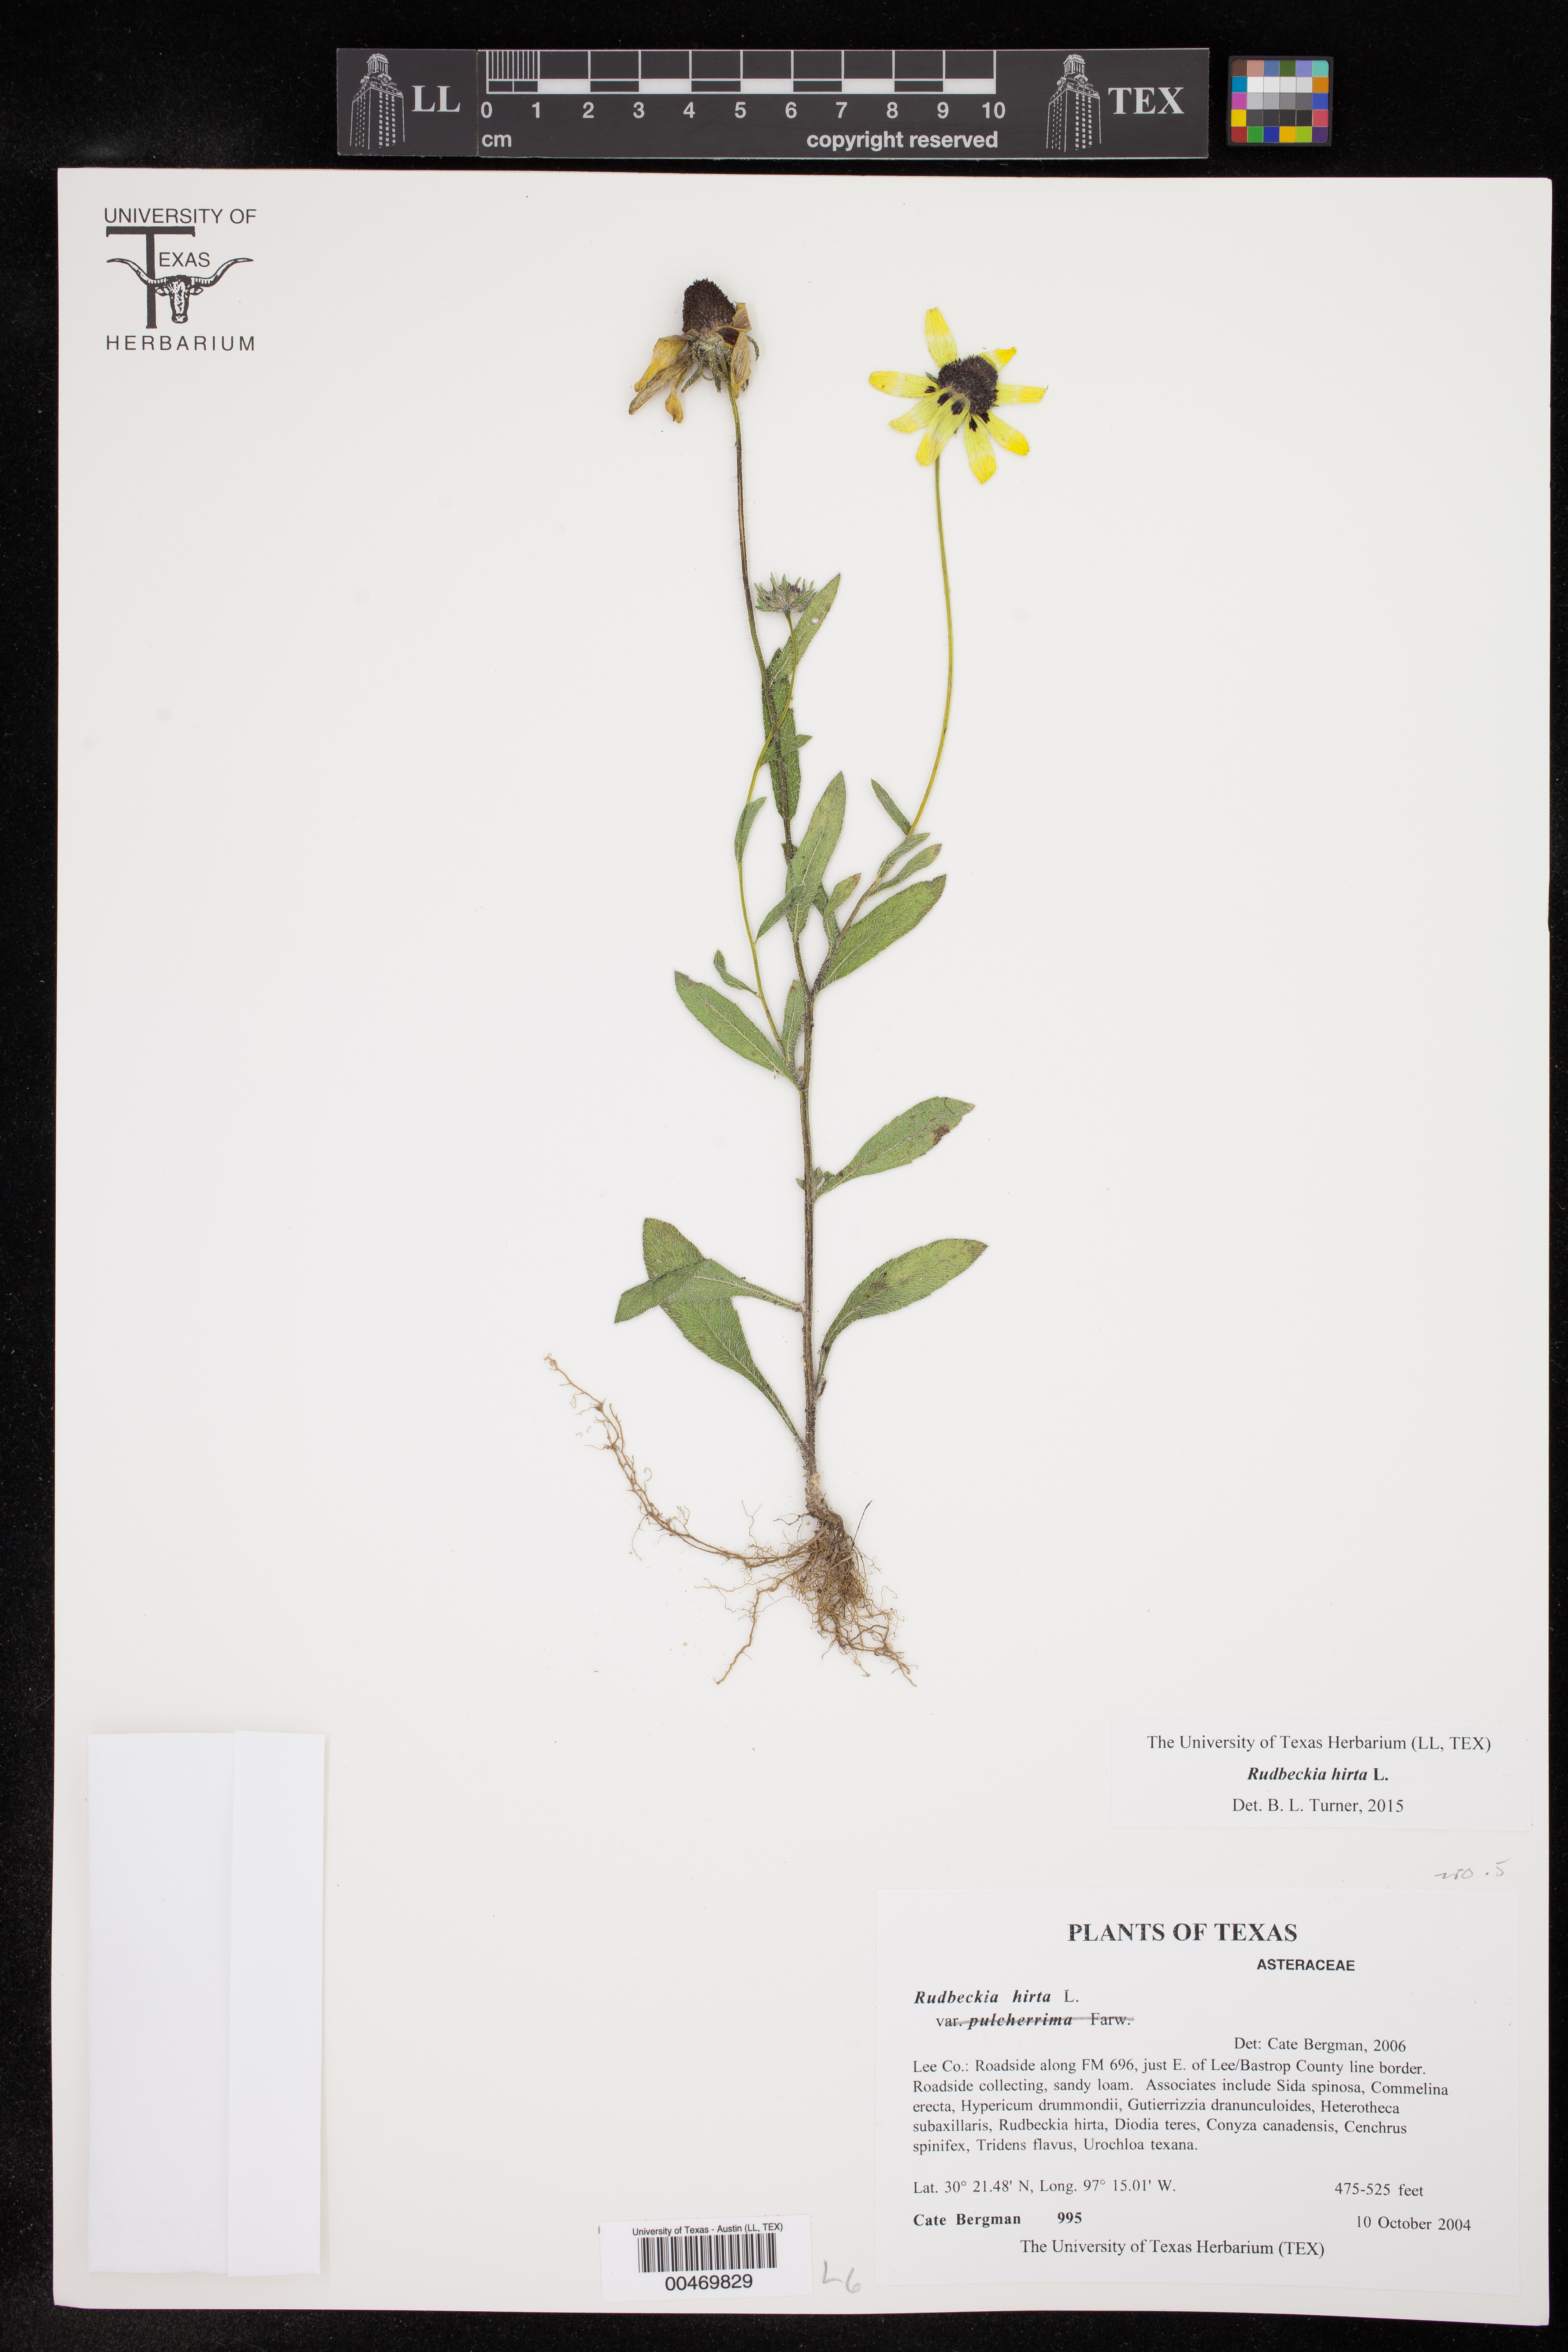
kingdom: Plantae
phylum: Tracheophyta
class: Magnoliopsida
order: Asterales
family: Asteraceae
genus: Rudbeckia
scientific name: Rudbeckia hirta
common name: Black-eyed-susan
